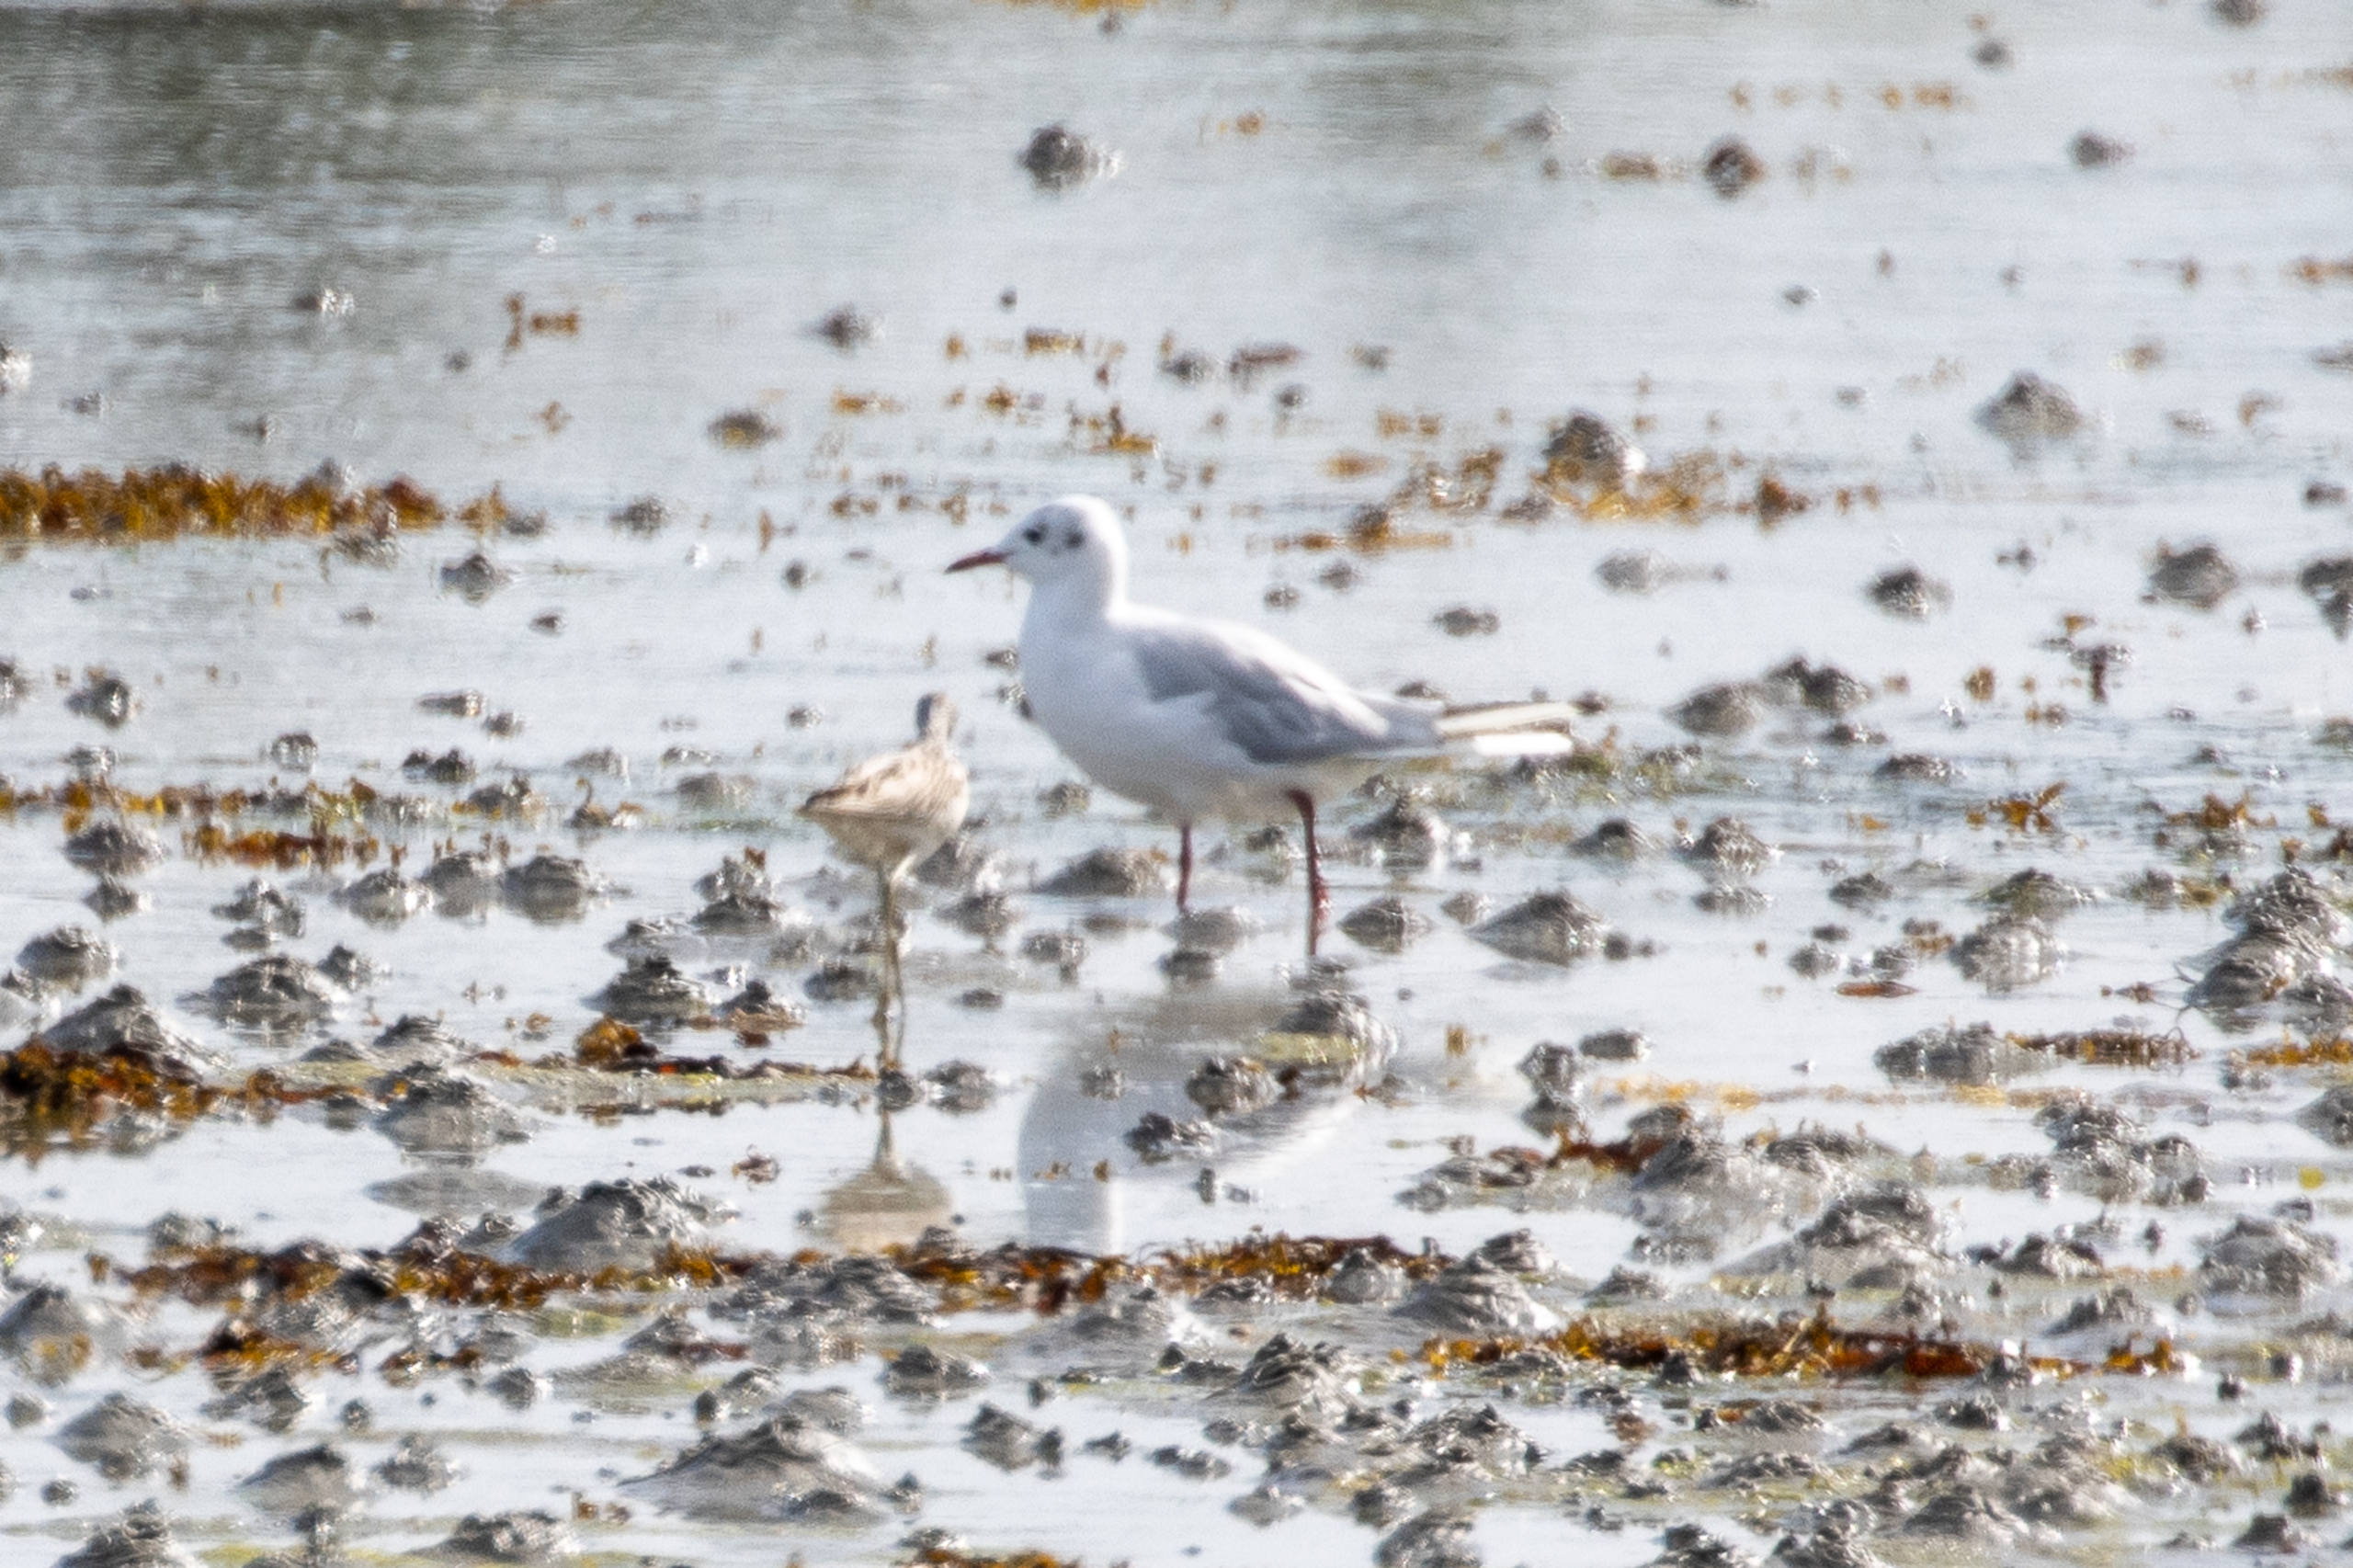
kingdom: Animalia
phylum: Chordata
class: Aves
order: Charadriiformes
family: Laridae
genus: Chroicocephalus
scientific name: Chroicocephalus ridibundus
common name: Hættemåge
